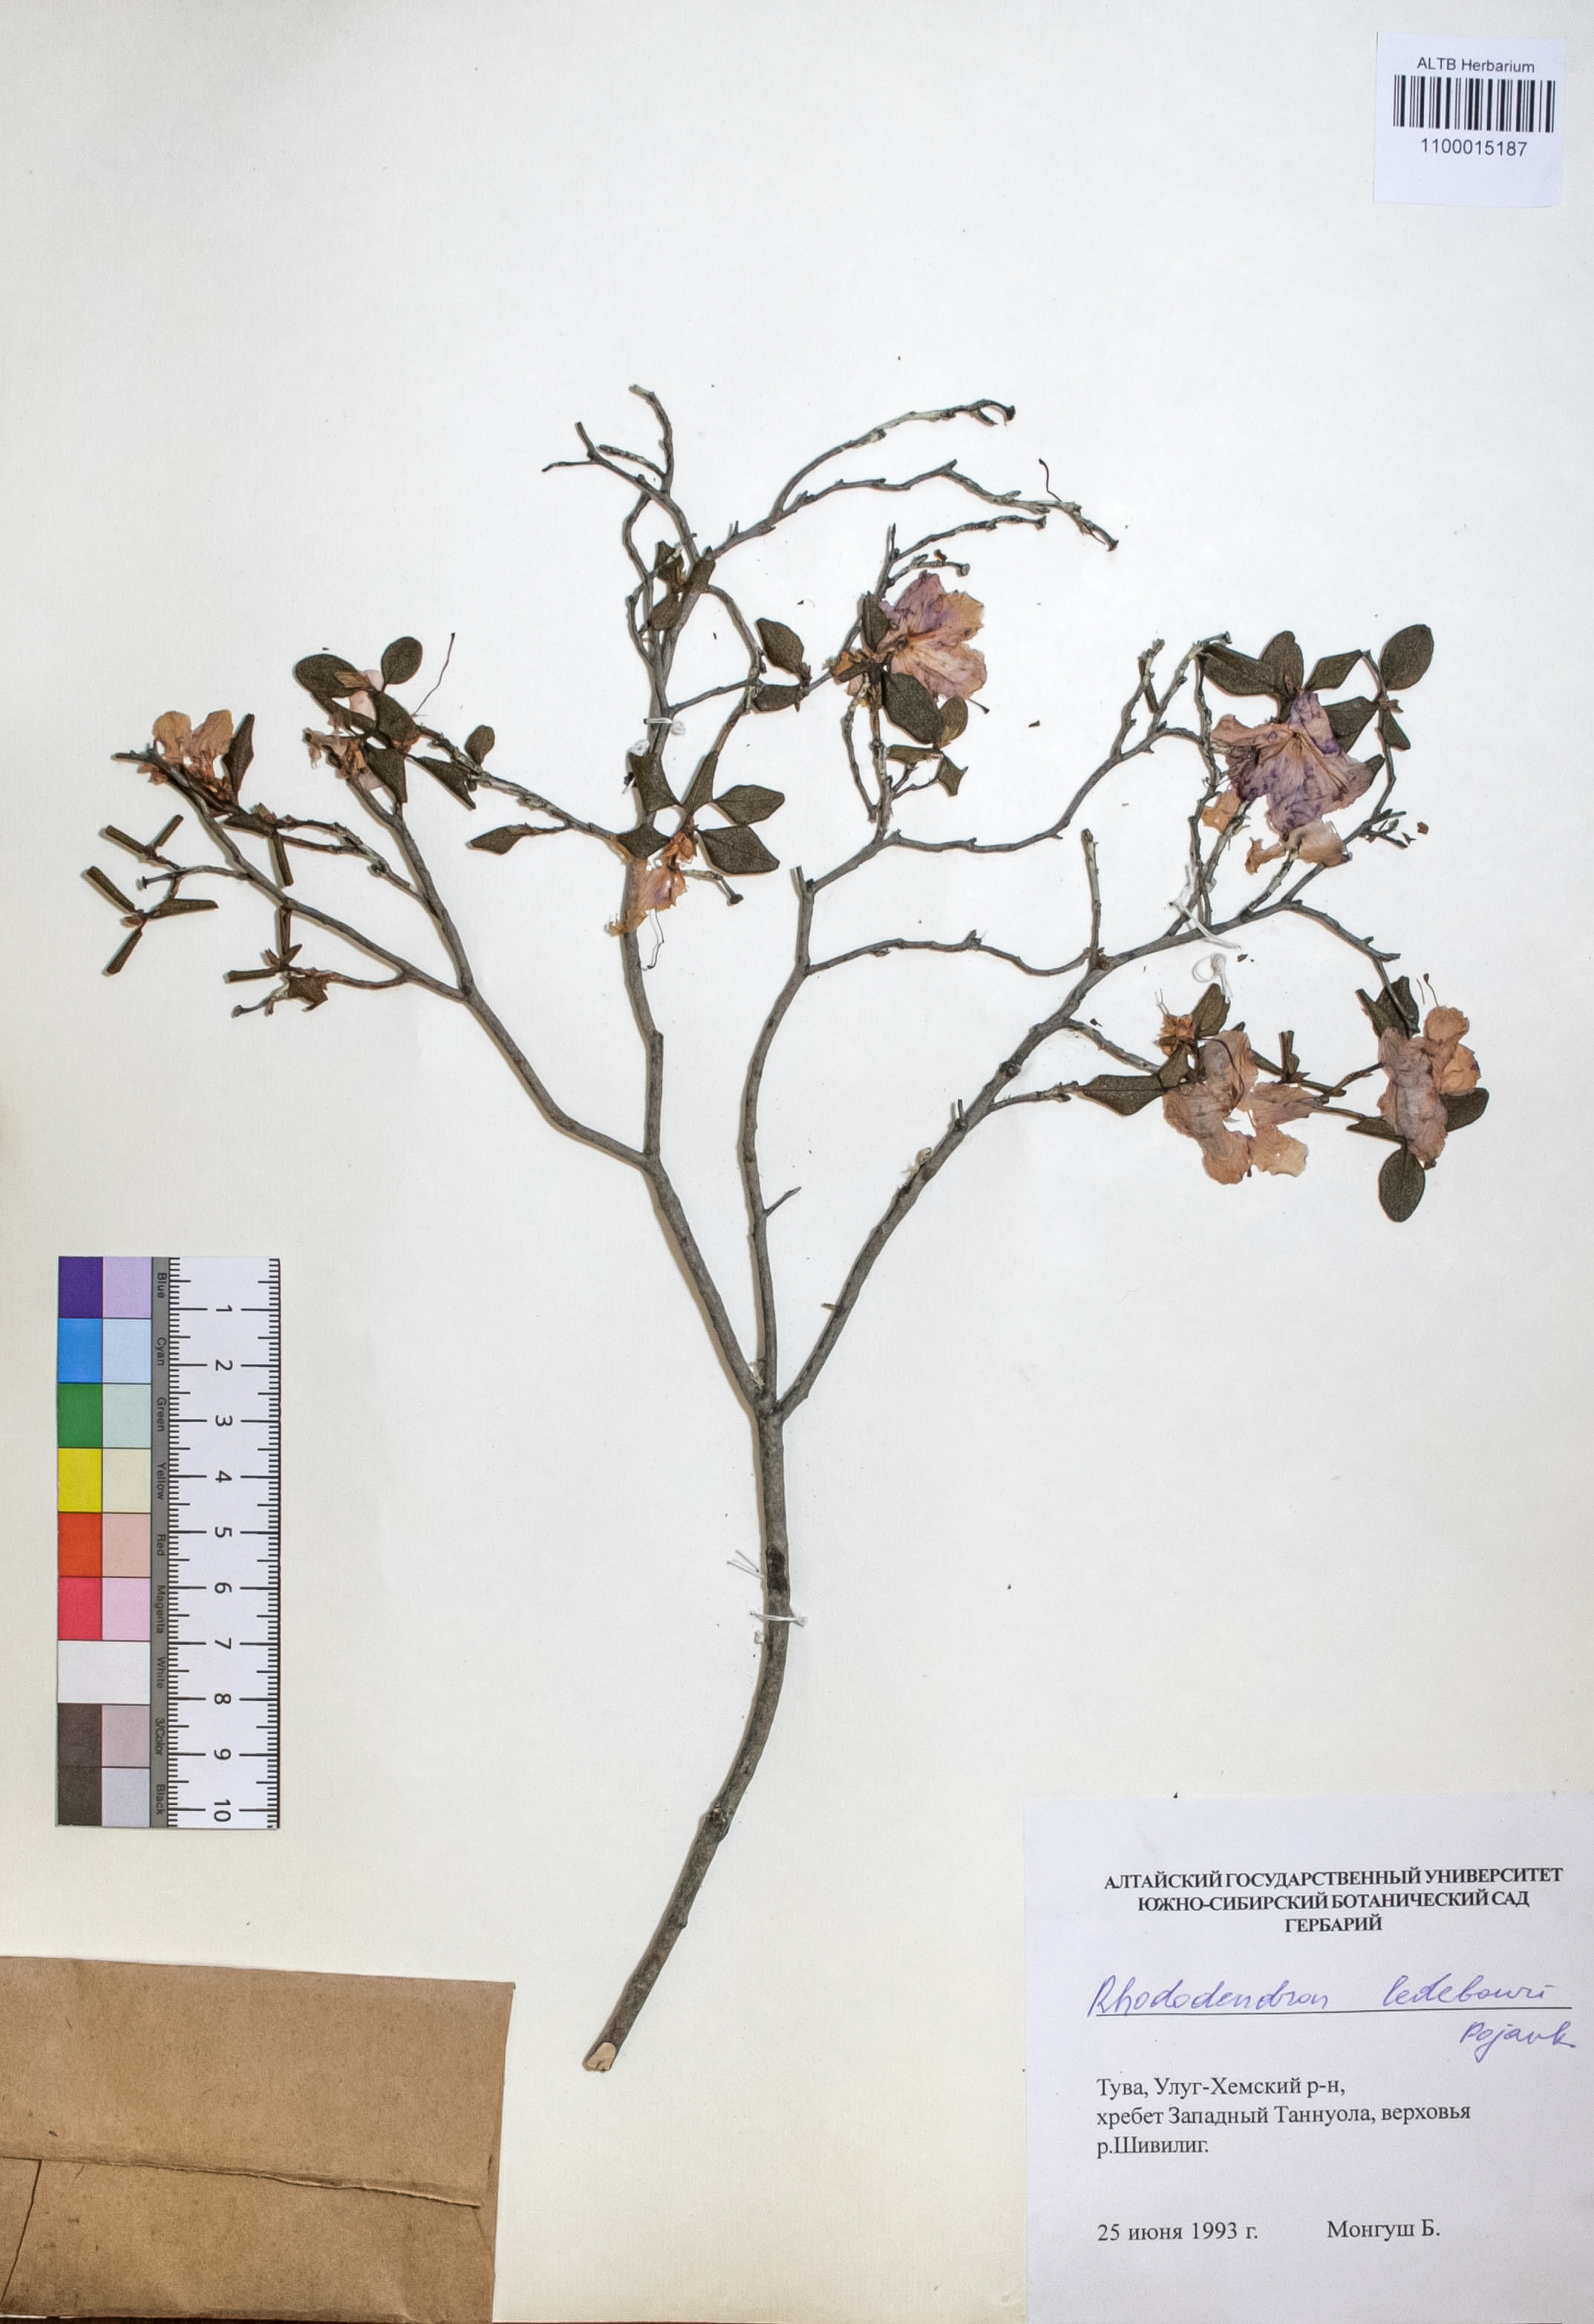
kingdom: Plantae
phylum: Tracheophyta
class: Magnoliopsida
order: Ericales
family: Ericaceae
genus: Rhododendron
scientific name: Rhododendron dauricum
